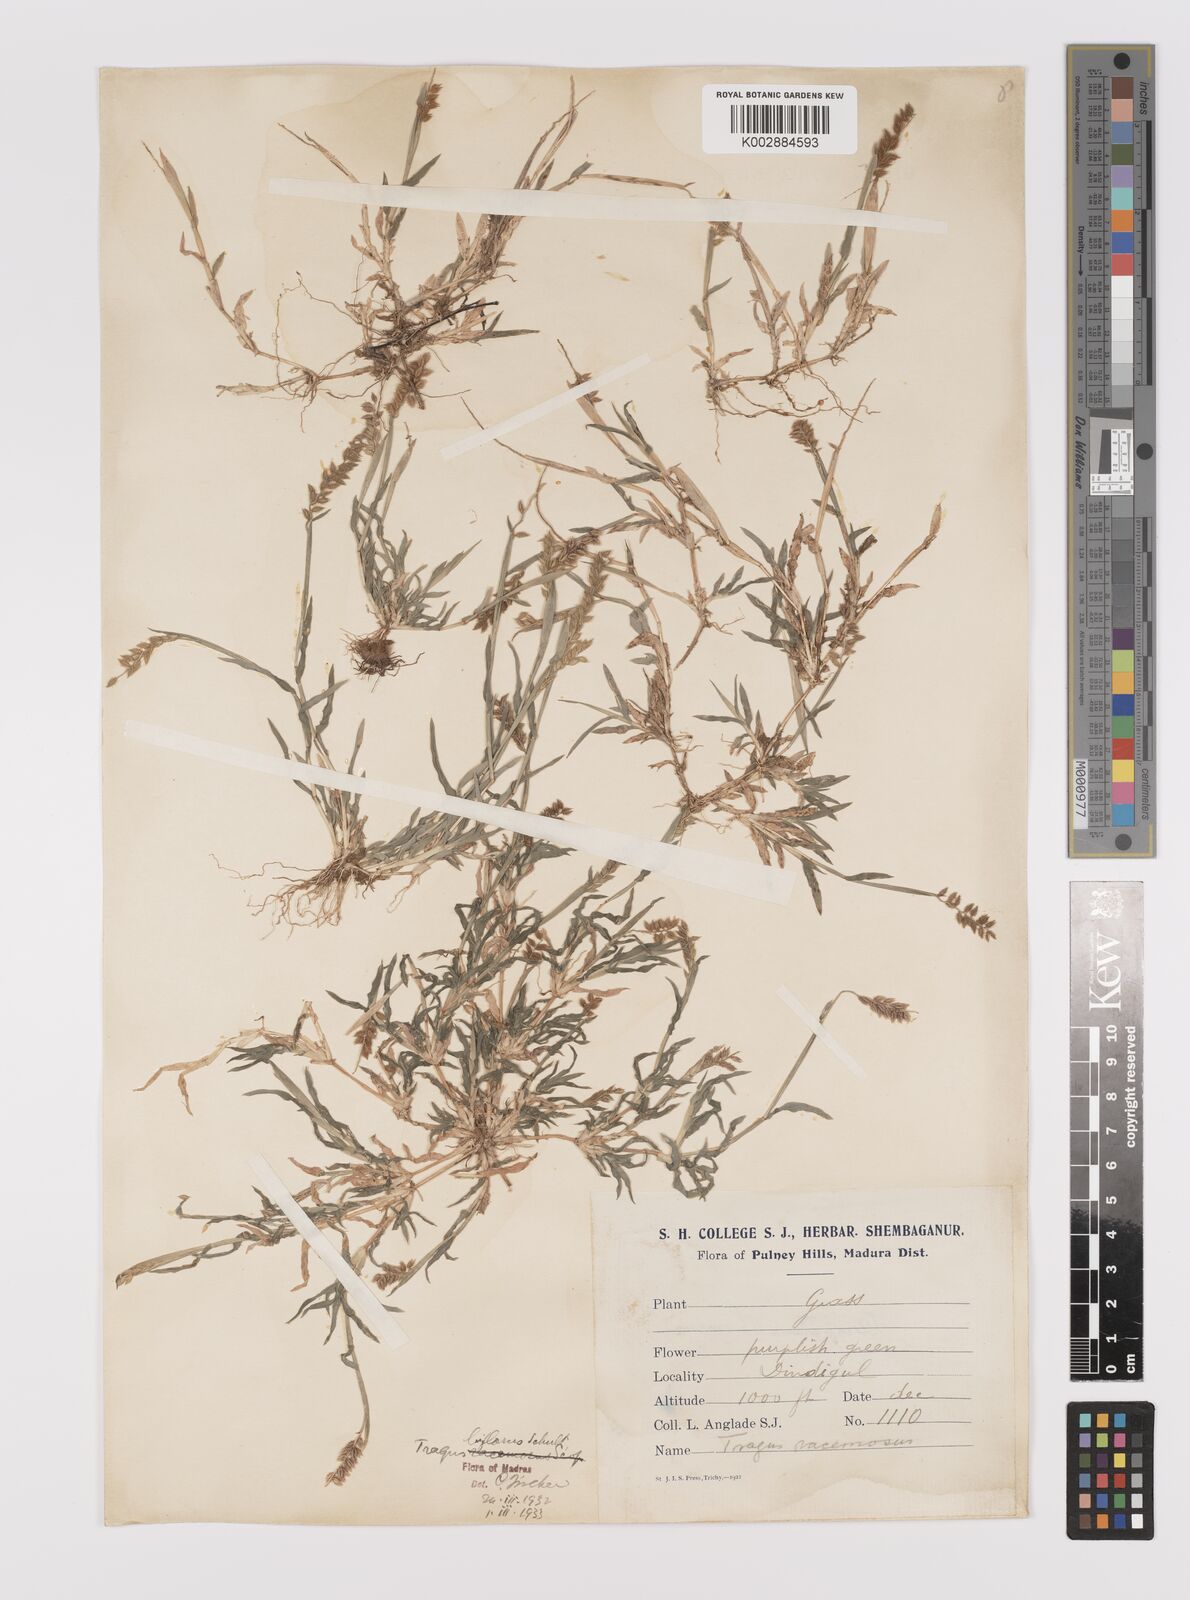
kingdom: Plantae
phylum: Tracheophyta
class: Liliopsida
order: Poales
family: Poaceae
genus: Tragus
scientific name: Tragus mongolorum
